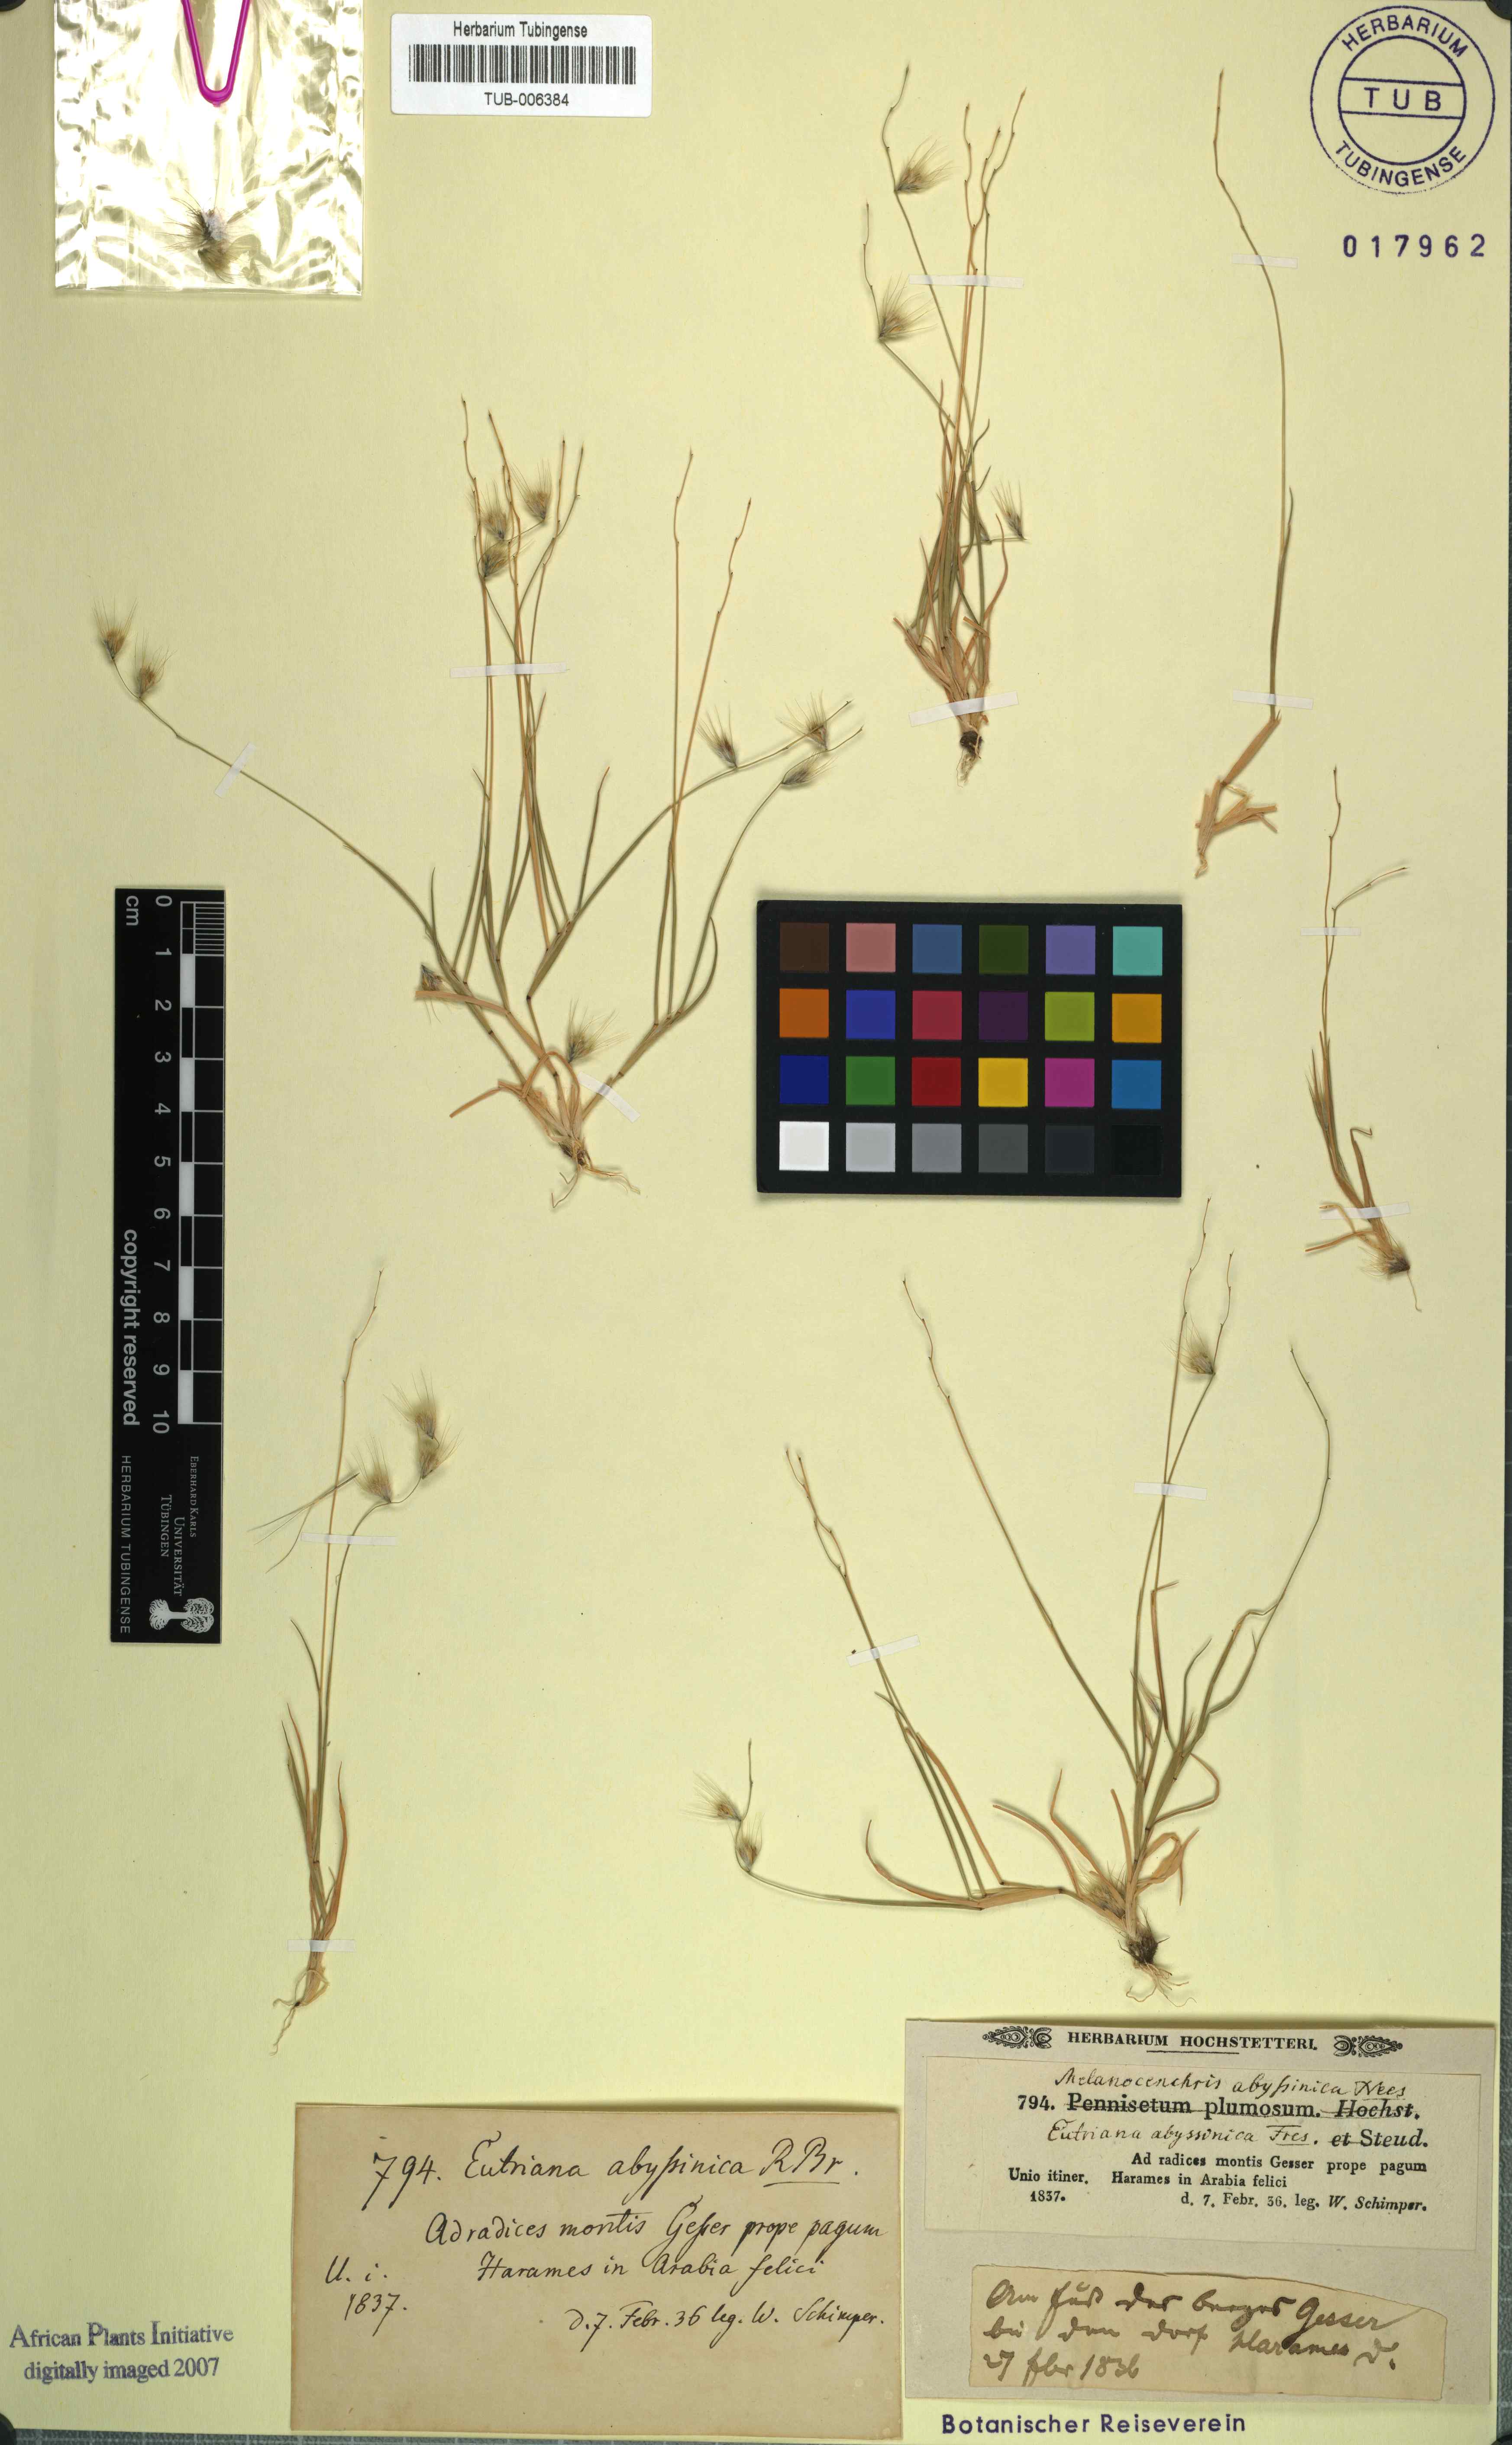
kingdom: Plantae
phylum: Tracheophyta
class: Liliopsida
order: Poales
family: Poaceae
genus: Melanocenchris
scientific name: Melanocenchris abyssinica
